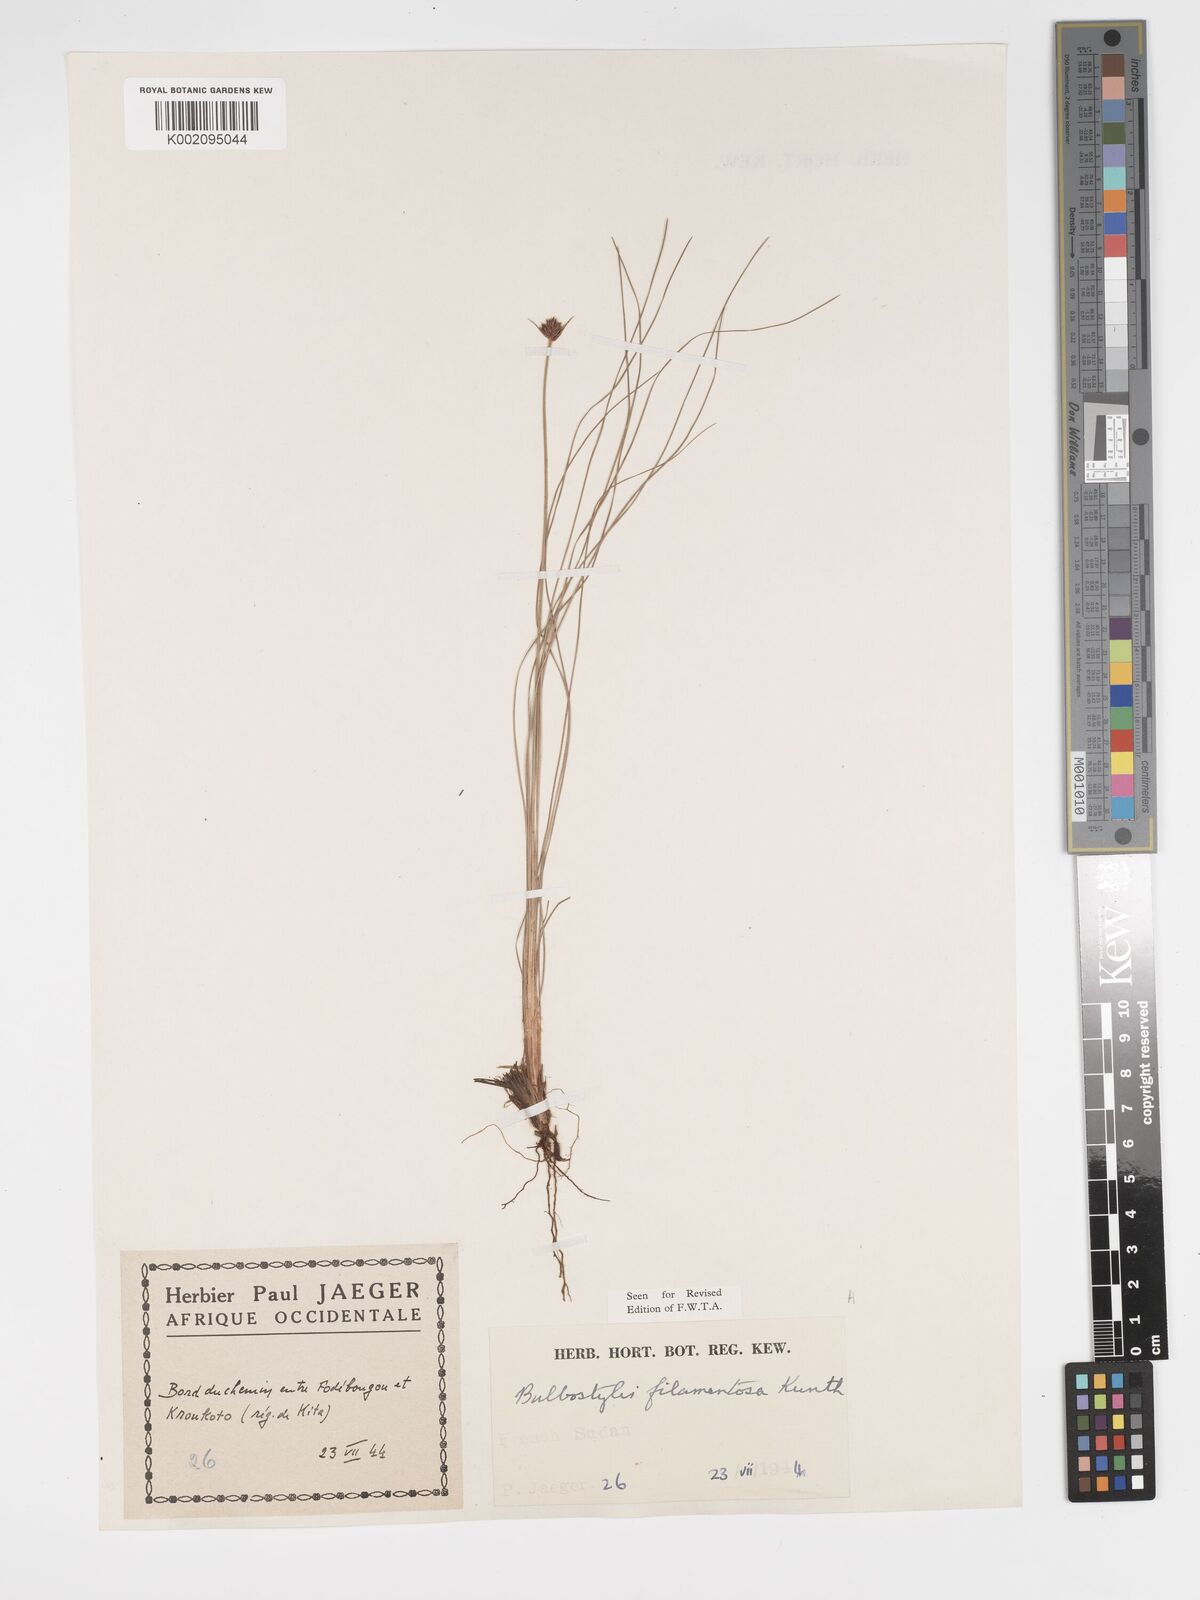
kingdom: Plantae
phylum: Tracheophyta
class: Liliopsida
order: Poales
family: Cyperaceae
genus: Bulbostylis
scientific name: Bulbostylis scabricaulis
